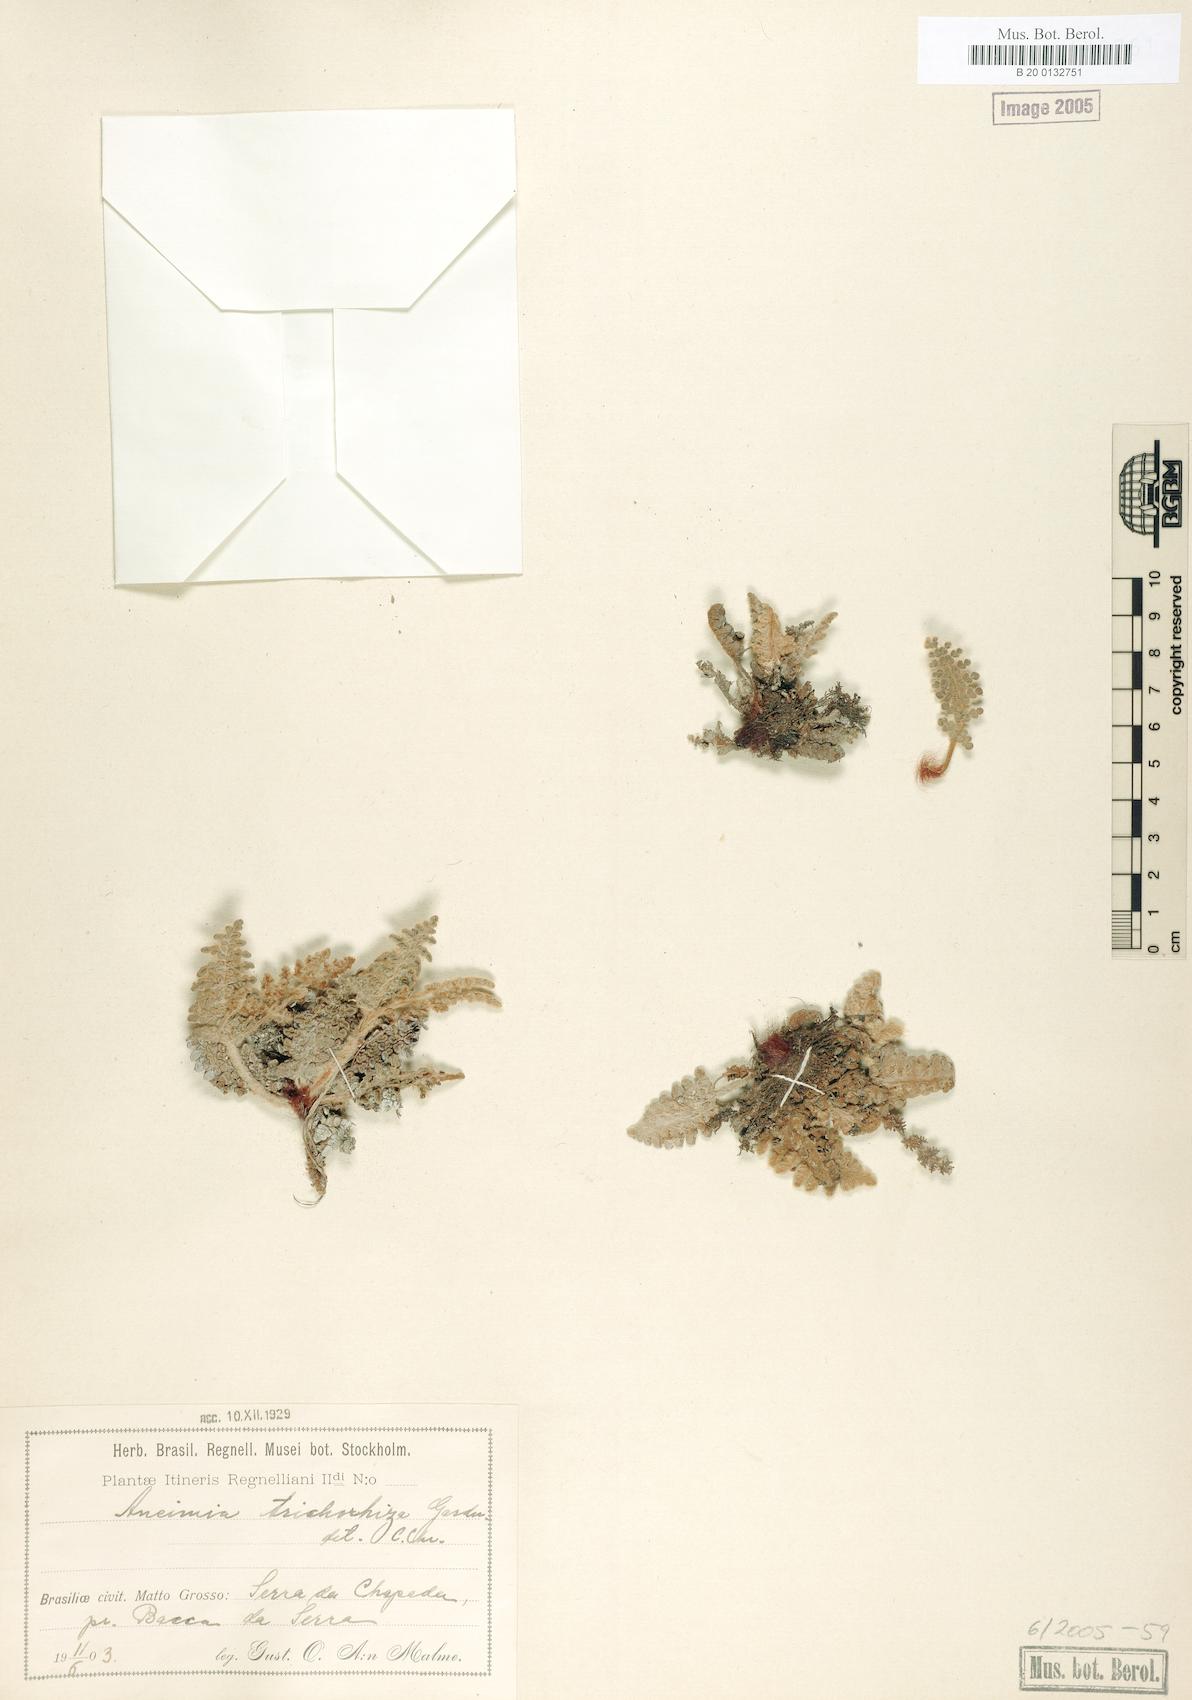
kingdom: Plantae
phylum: Tracheophyta
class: Polypodiopsida
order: Schizaeales
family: Anemiaceae
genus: Anemia
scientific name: Anemia trichorhiza
